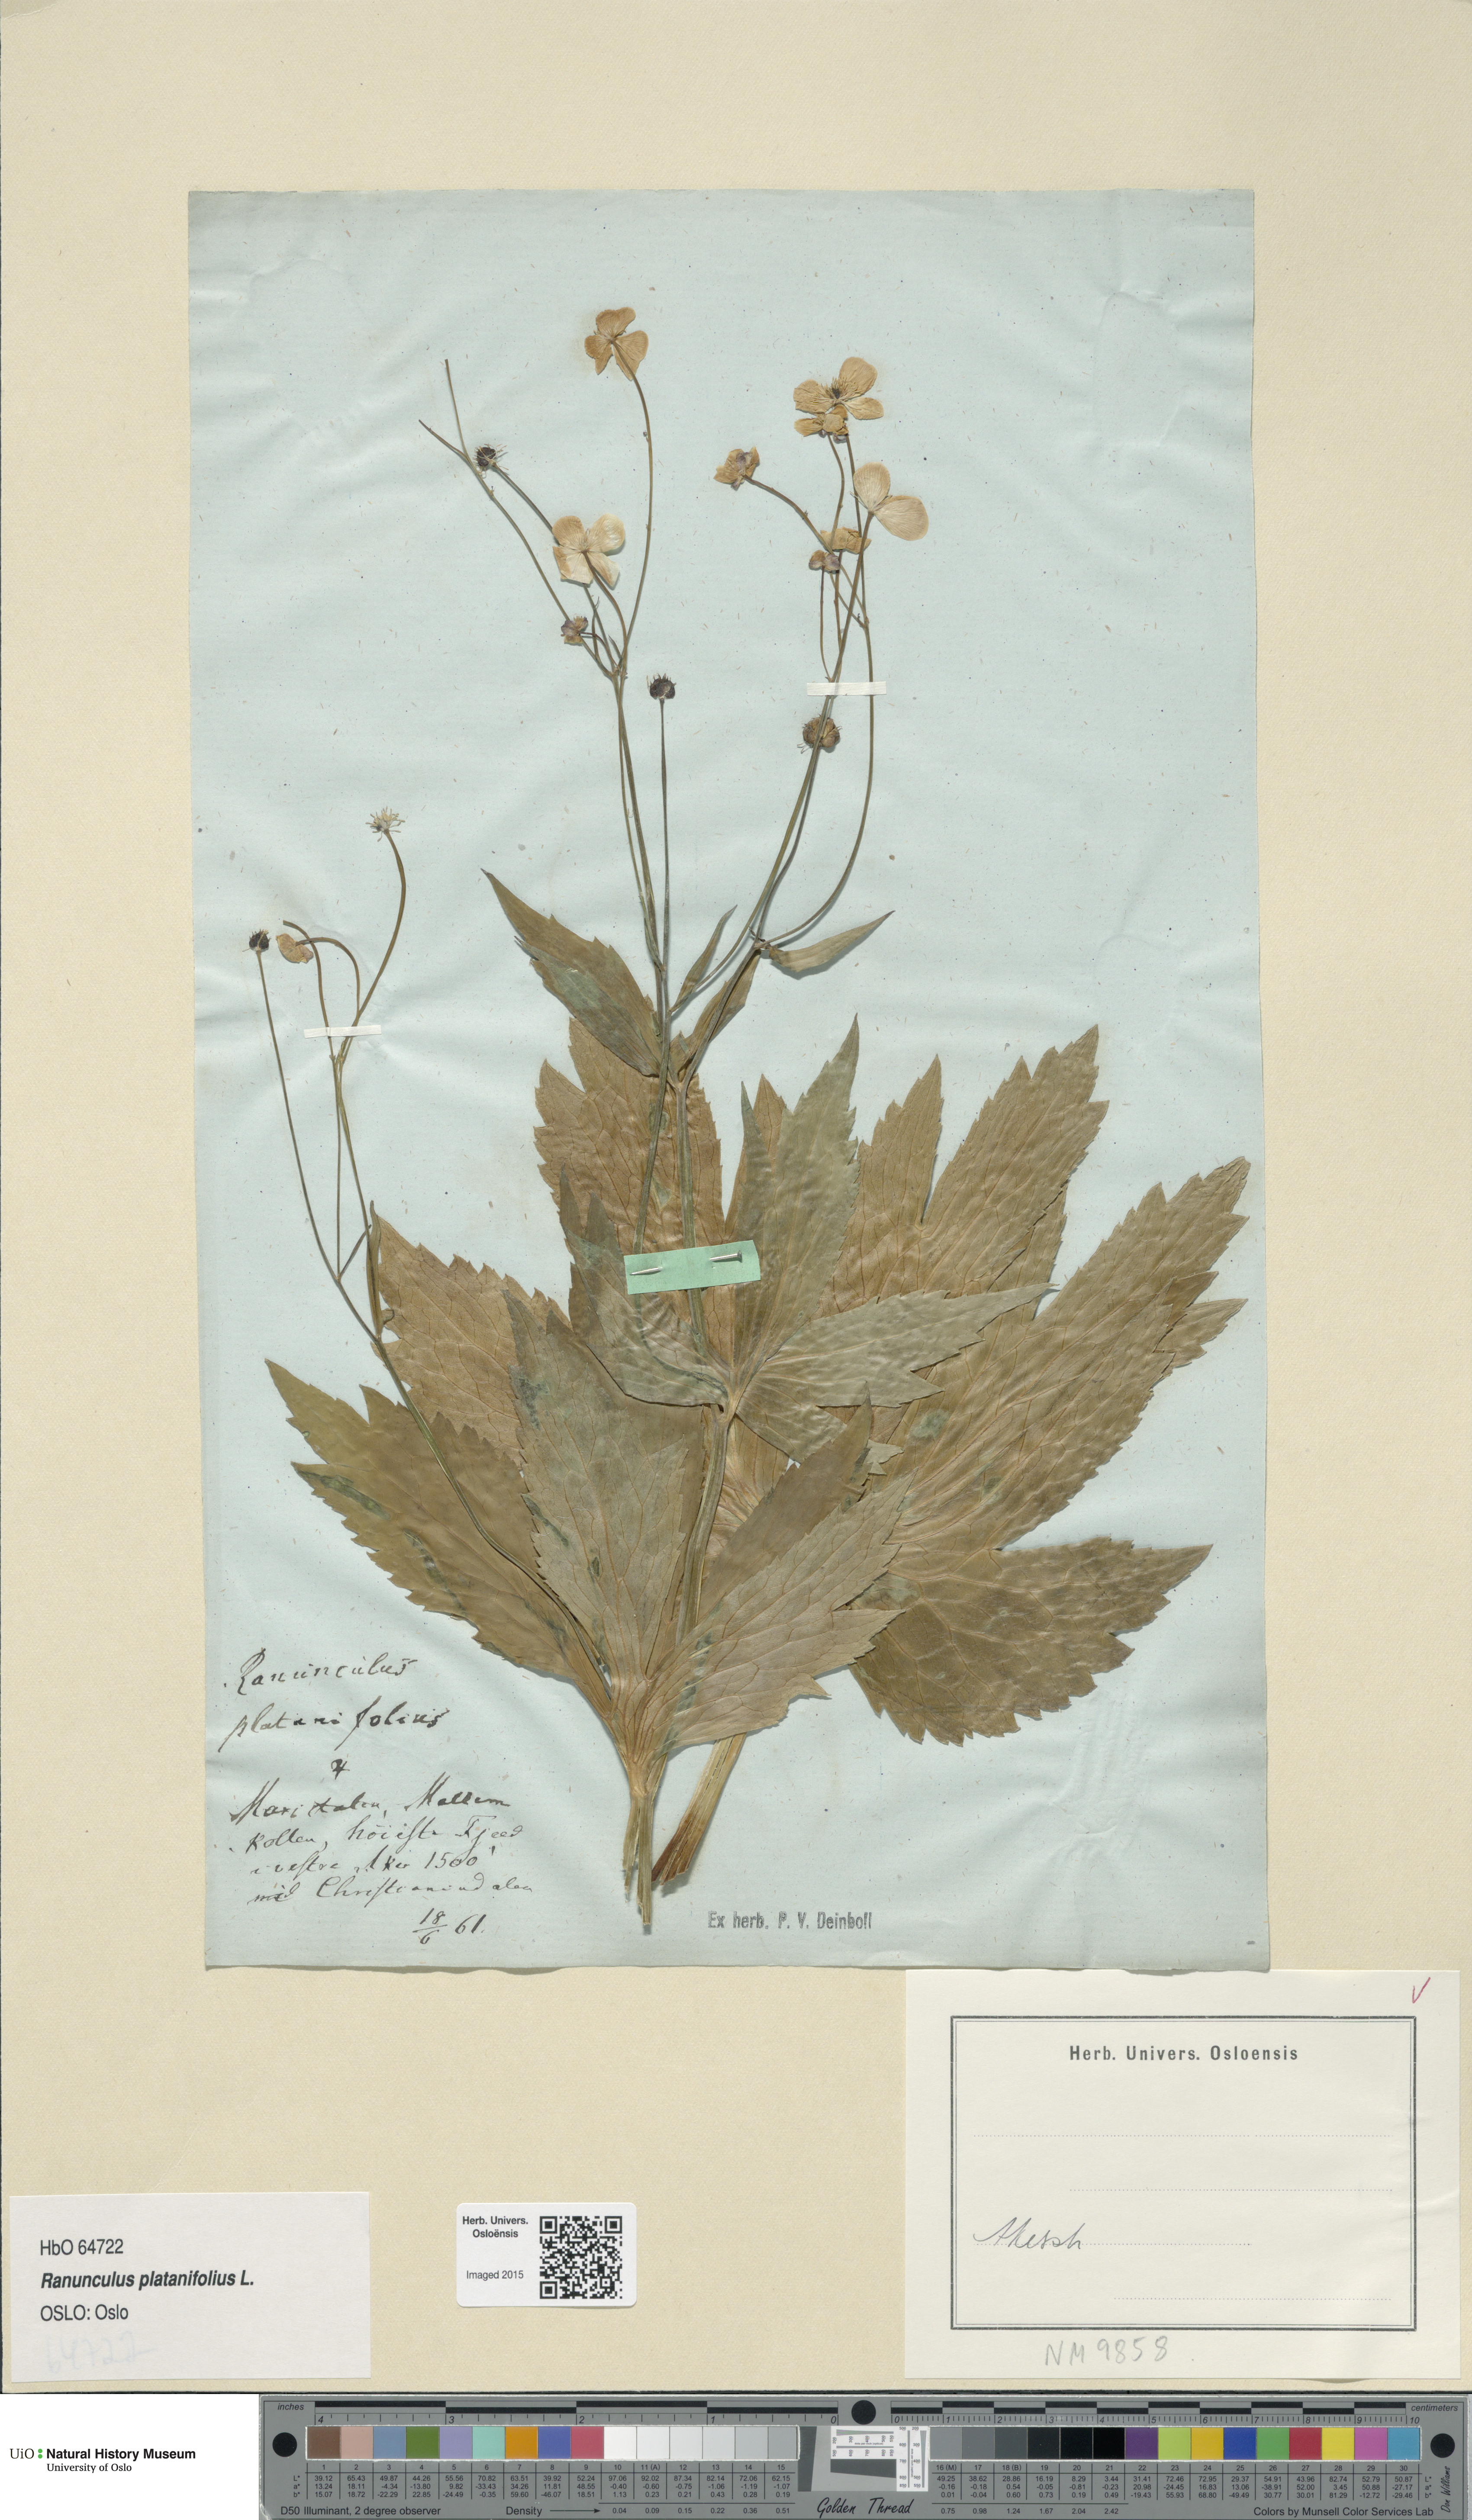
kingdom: Plantae
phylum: Tracheophyta
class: Magnoliopsida
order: Ranunculales
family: Ranunculaceae
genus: Ranunculus
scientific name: Ranunculus platanifolius
